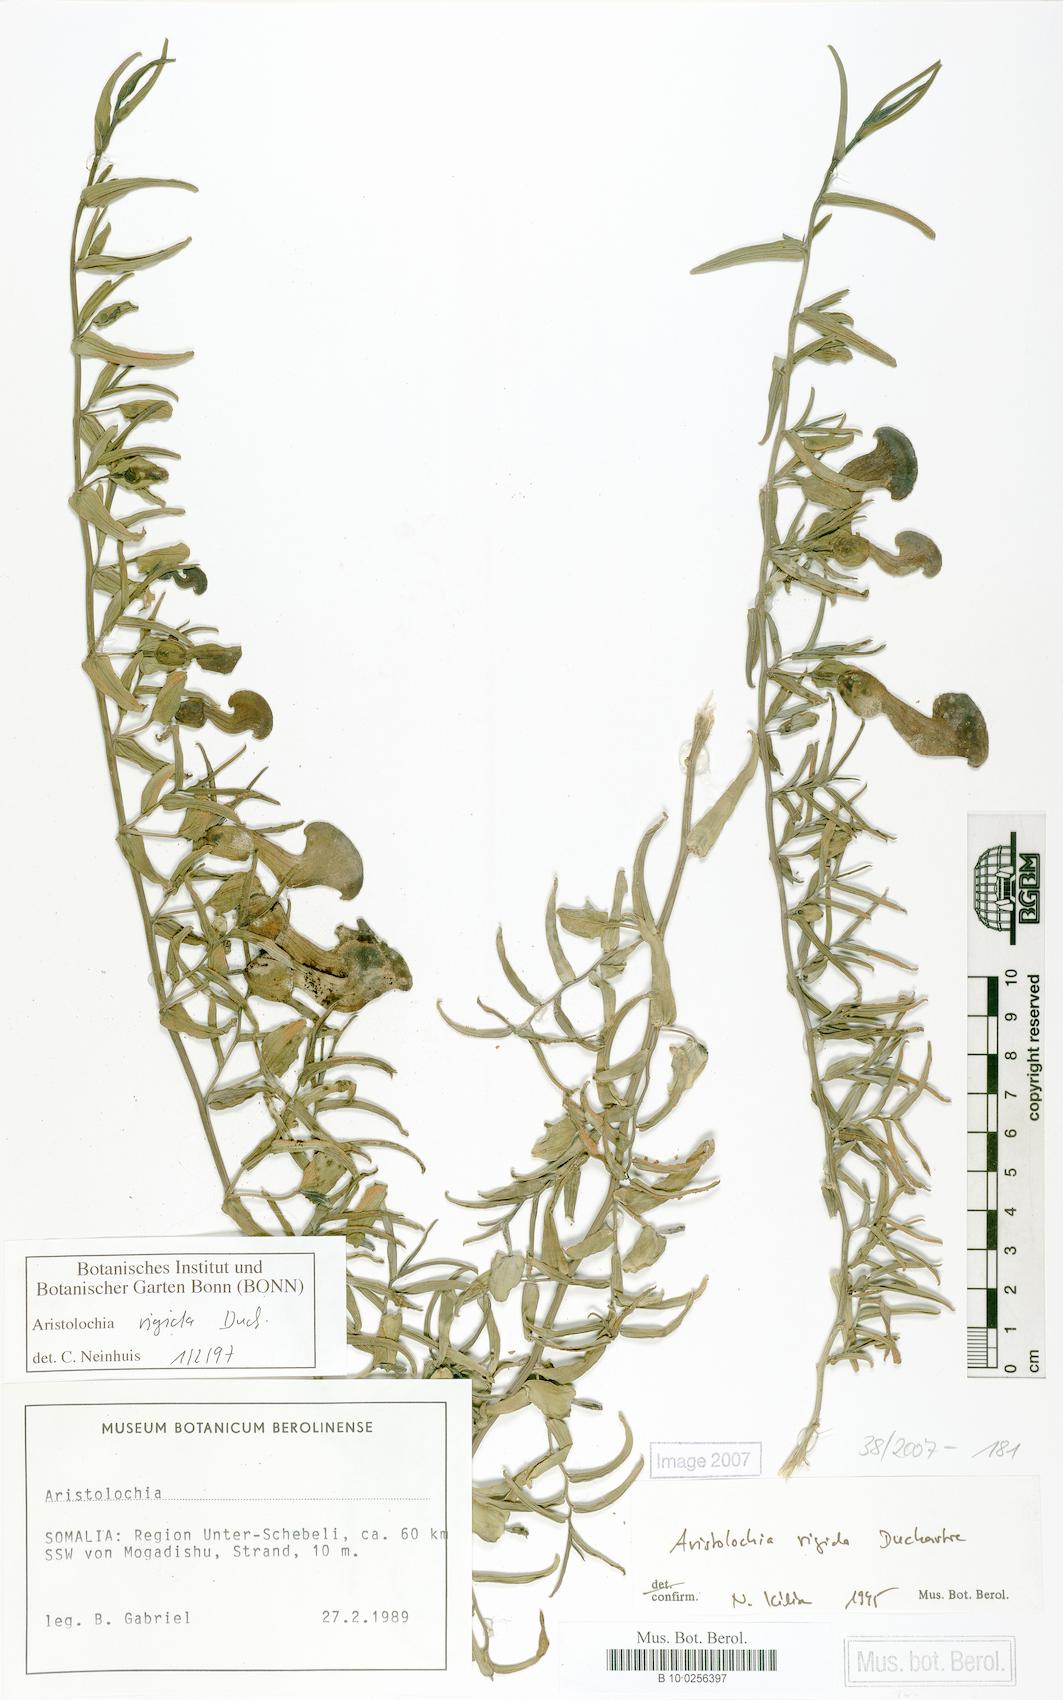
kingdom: Plantae
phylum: Tracheophyta
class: Magnoliopsida
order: Piperales
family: Aristolochiaceae
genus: Aristolochia
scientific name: Aristolochia rigida
